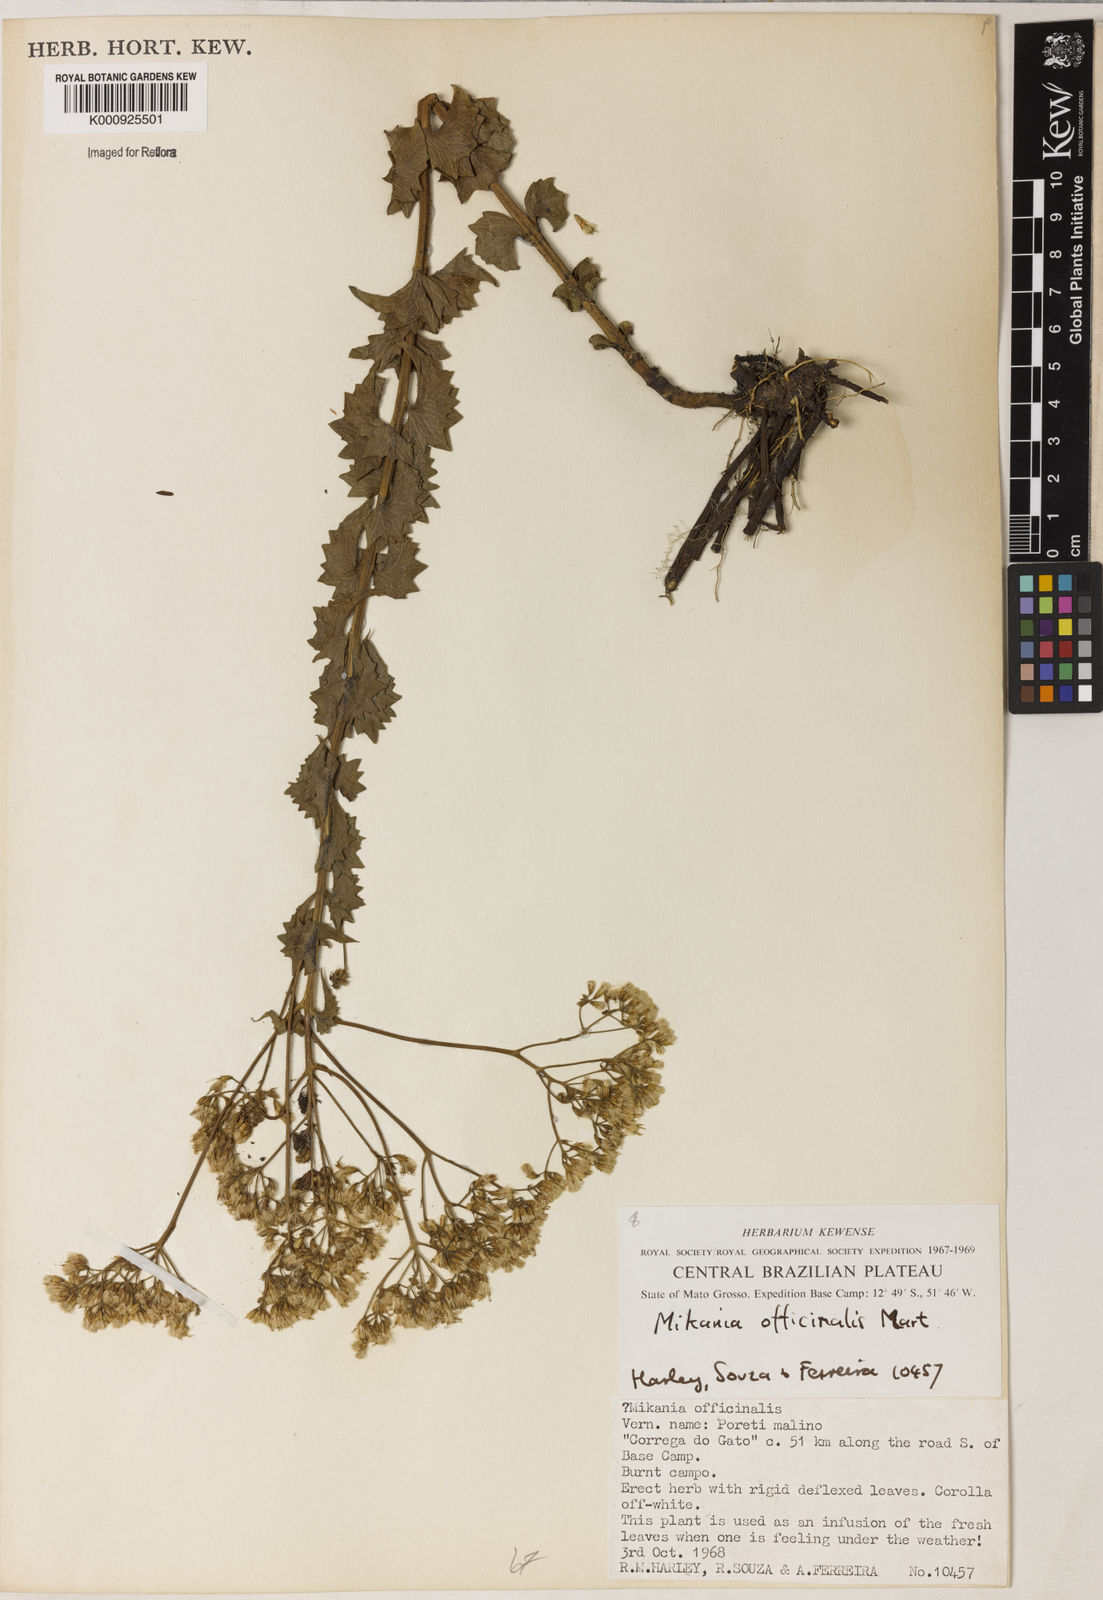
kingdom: Plantae
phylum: Tracheophyta
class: Magnoliopsida
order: Asterales
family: Asteraceae
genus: Mikania
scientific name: Mikania officinalis
